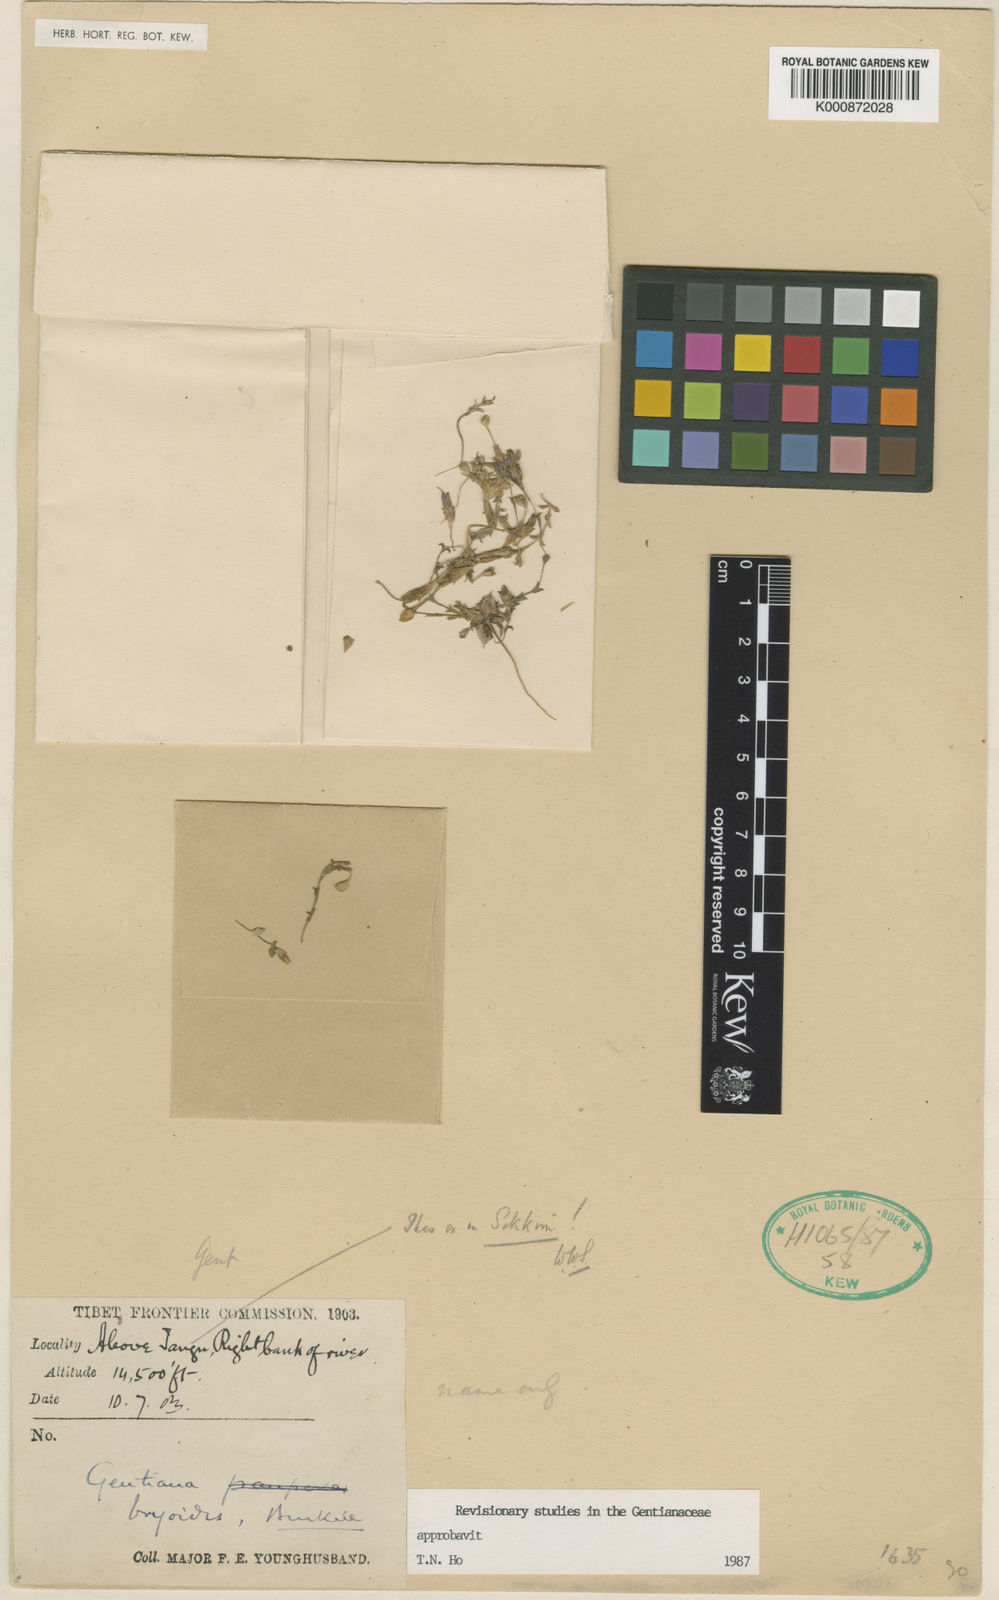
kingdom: Plantae
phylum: Tracheophyta
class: Magnoliopsida
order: Gentianales
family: Gentianaceae
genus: Gentiana
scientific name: Gentiana bryoides
